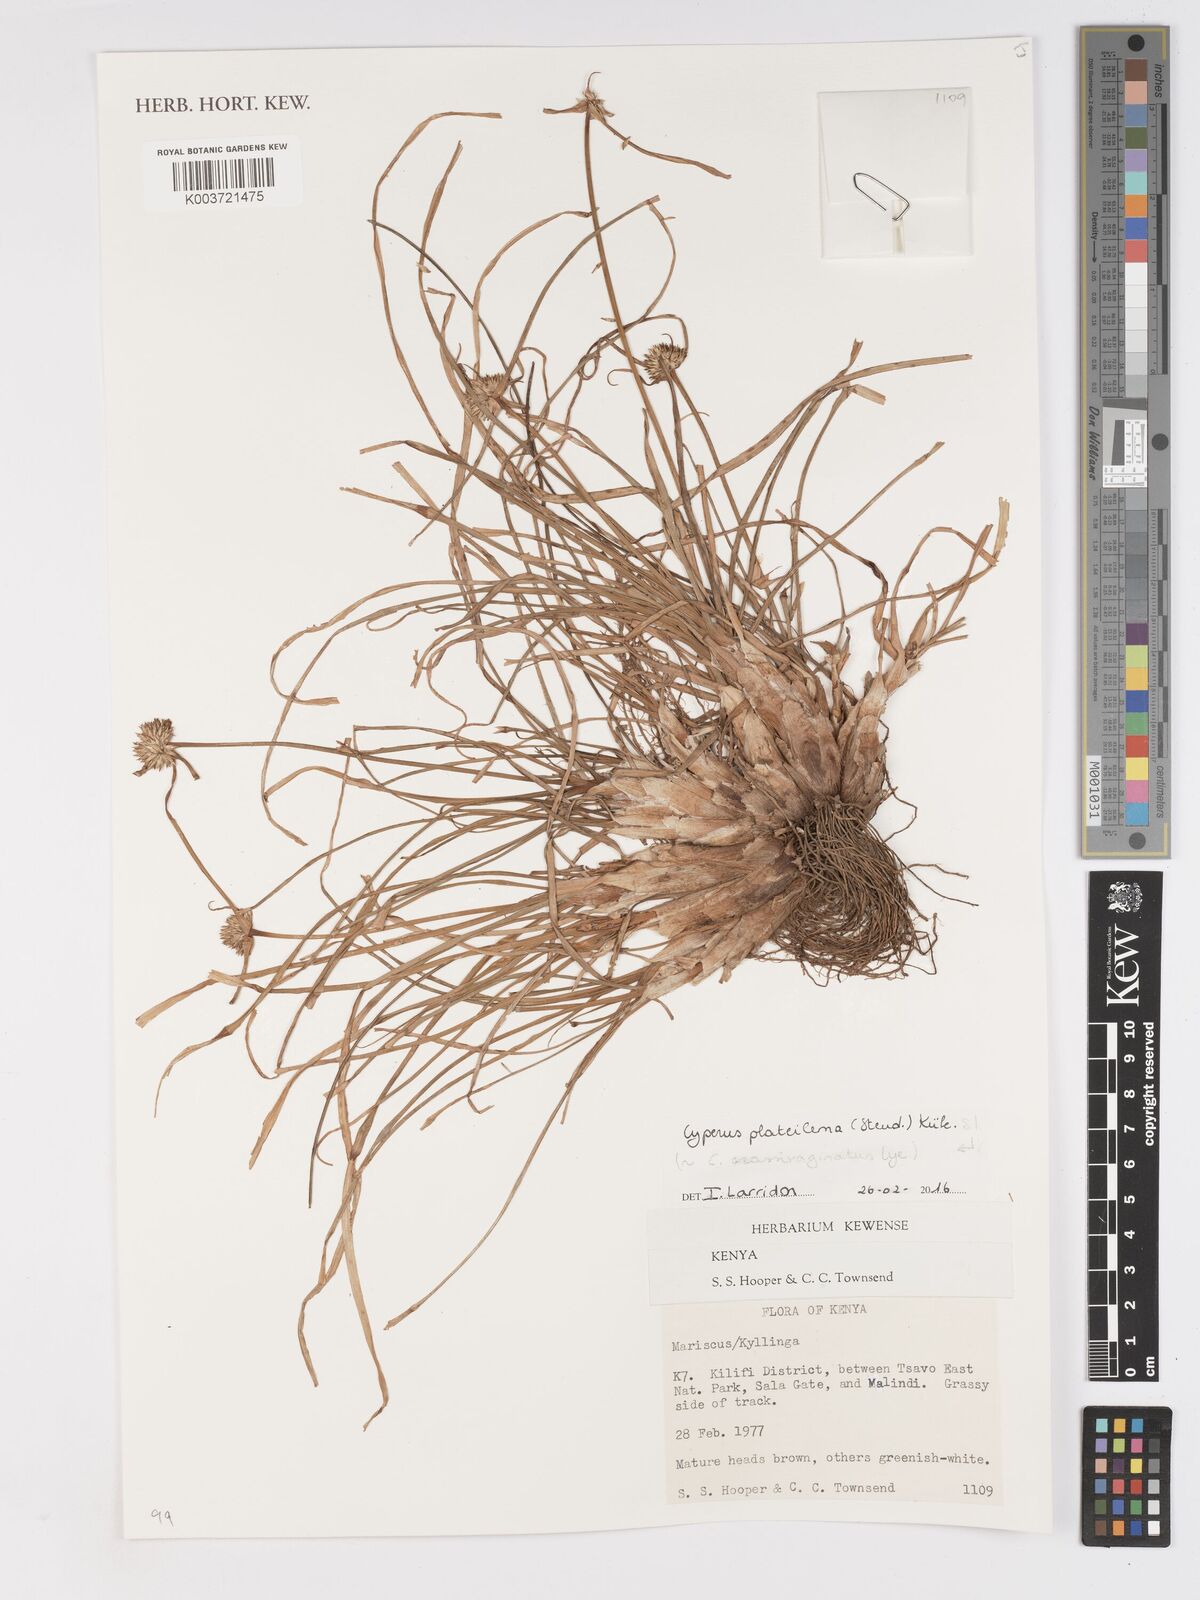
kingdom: Plantae
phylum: Tracheophyta
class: Liliopsida
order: Poales
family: Cyperaceae
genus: Cyperus
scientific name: Cyperus plateilema
